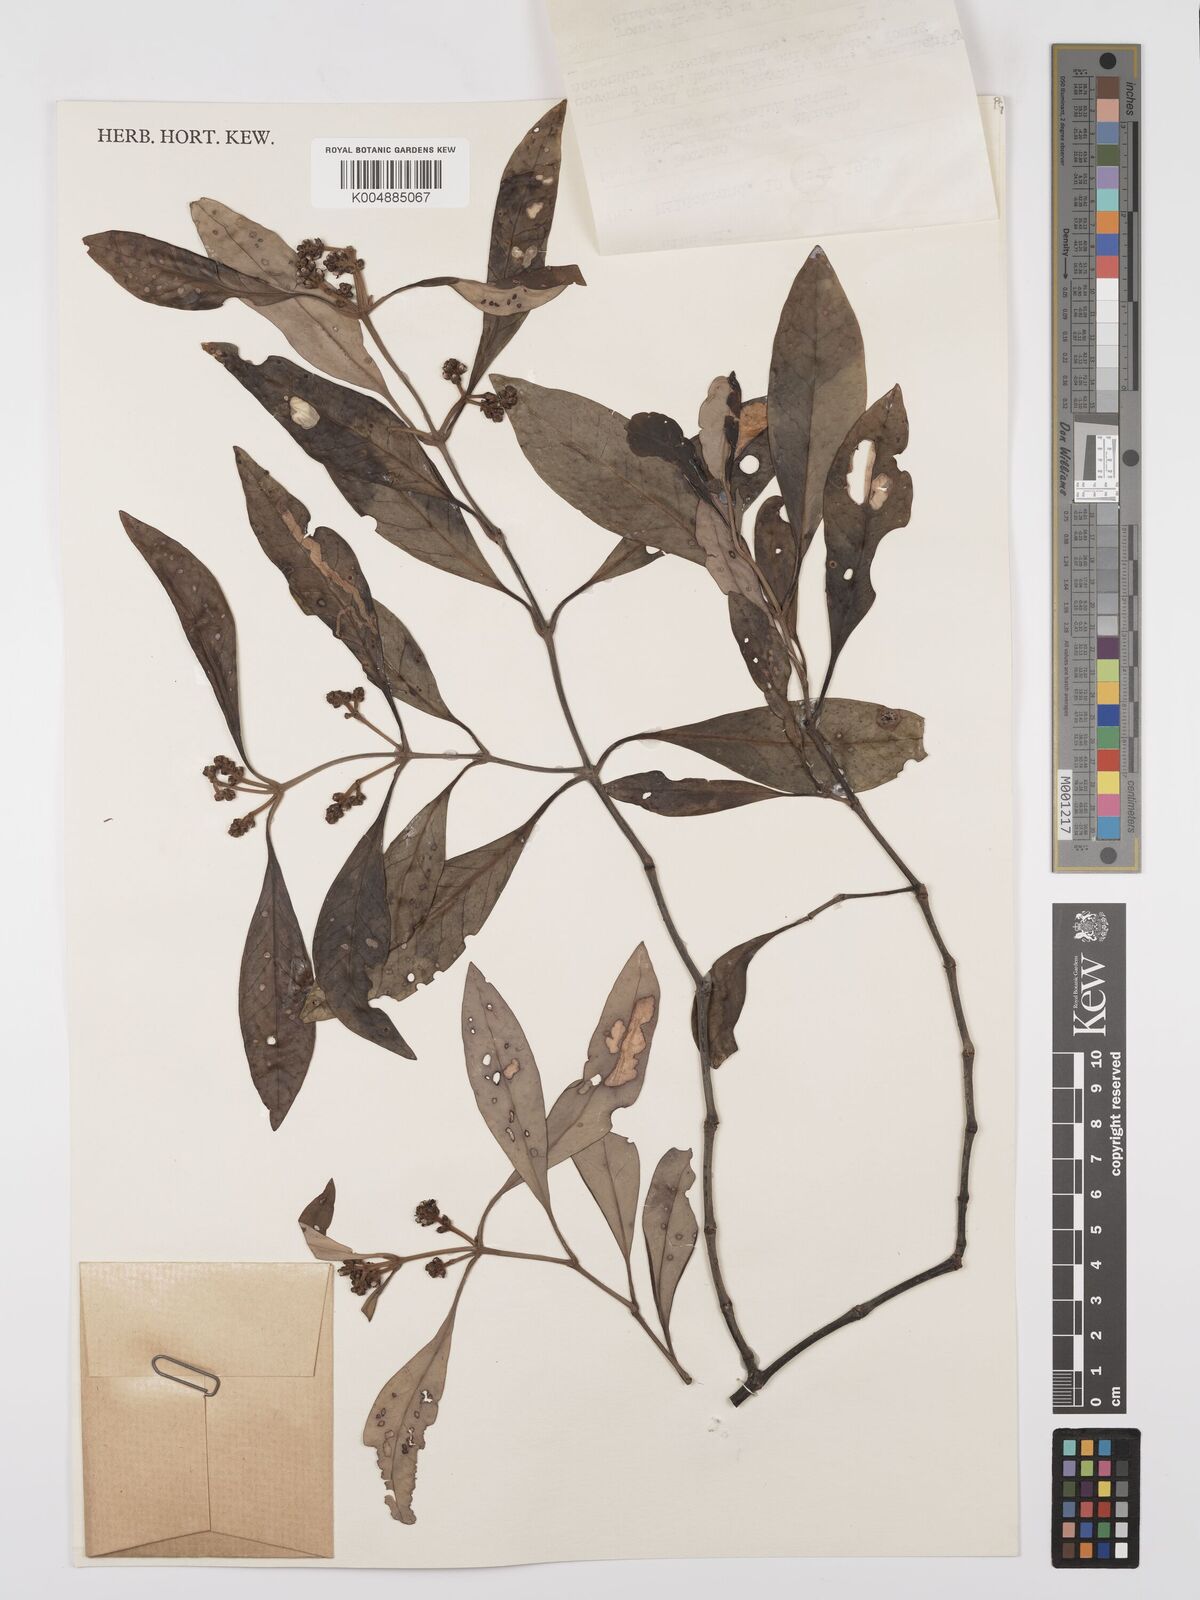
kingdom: Plantae
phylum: Tracheophyta
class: Magnoliopsida
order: Lamiales
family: Acanthaceae
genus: Avicennia
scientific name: Avicennia alba
